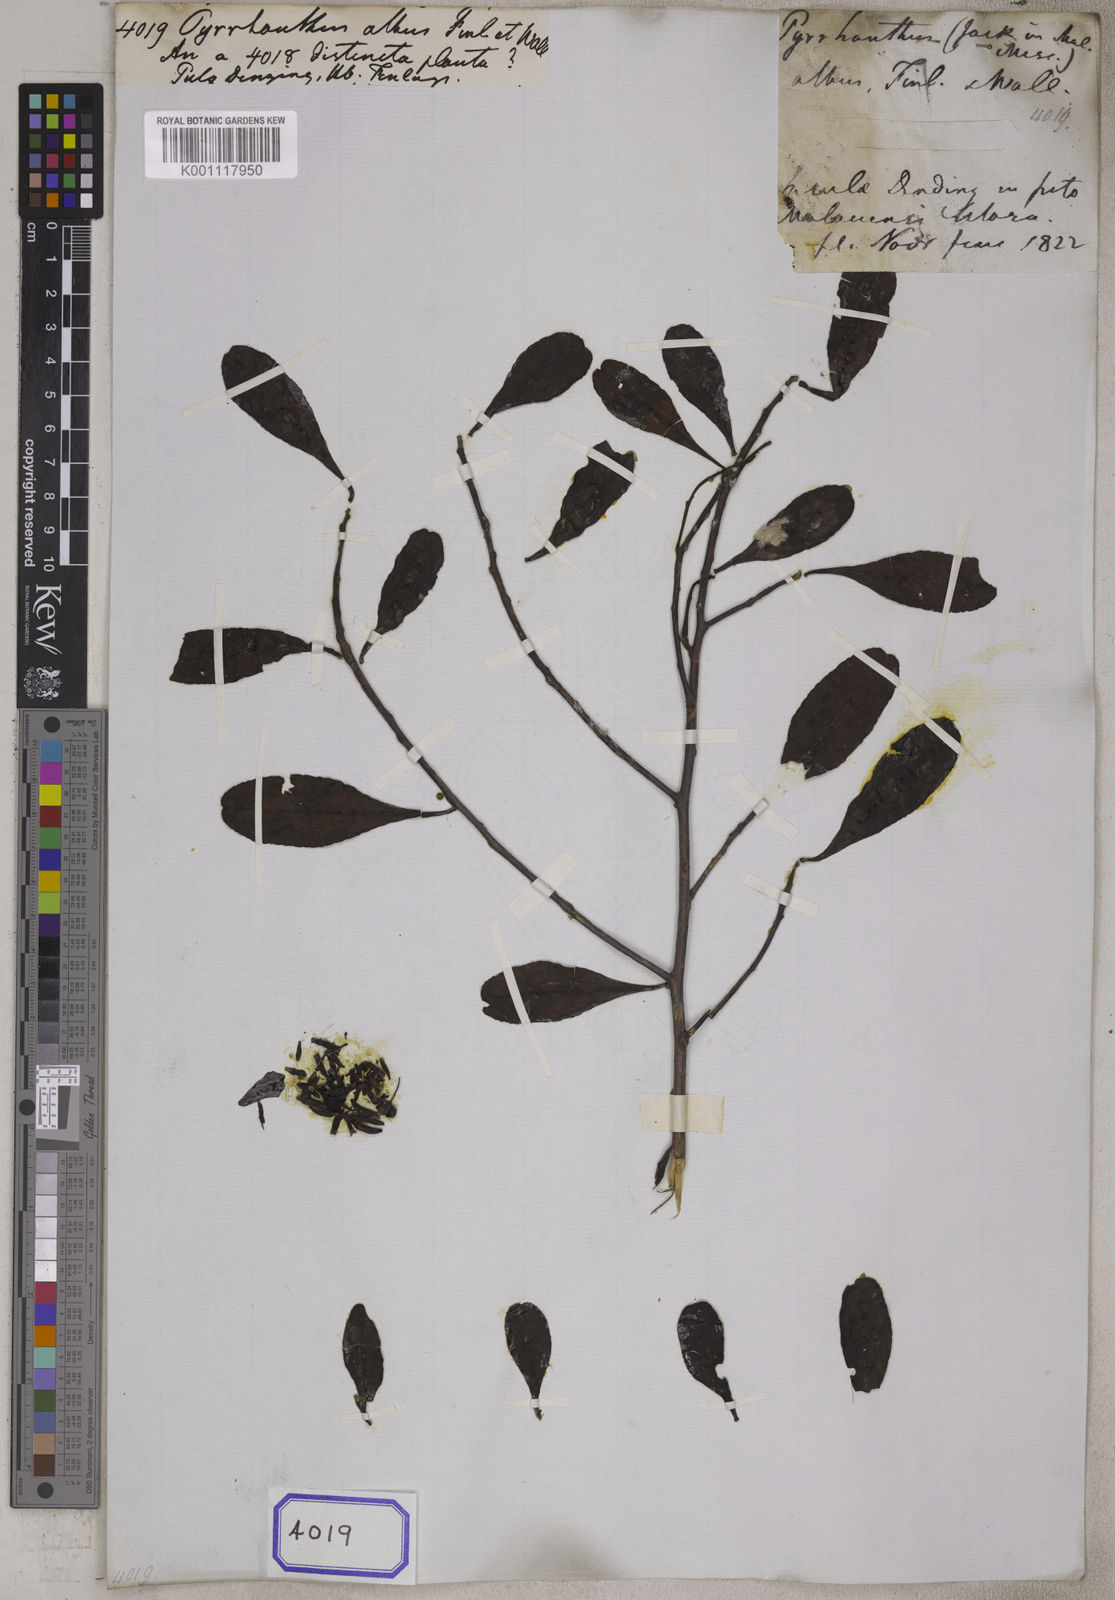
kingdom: Plantae
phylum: Tracheophyta
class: Magnoliopsida
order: Myrtales
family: Combretaceae
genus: Lumnitzera
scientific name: Lumnitzera racemosa
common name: White-flowered black mangrove
